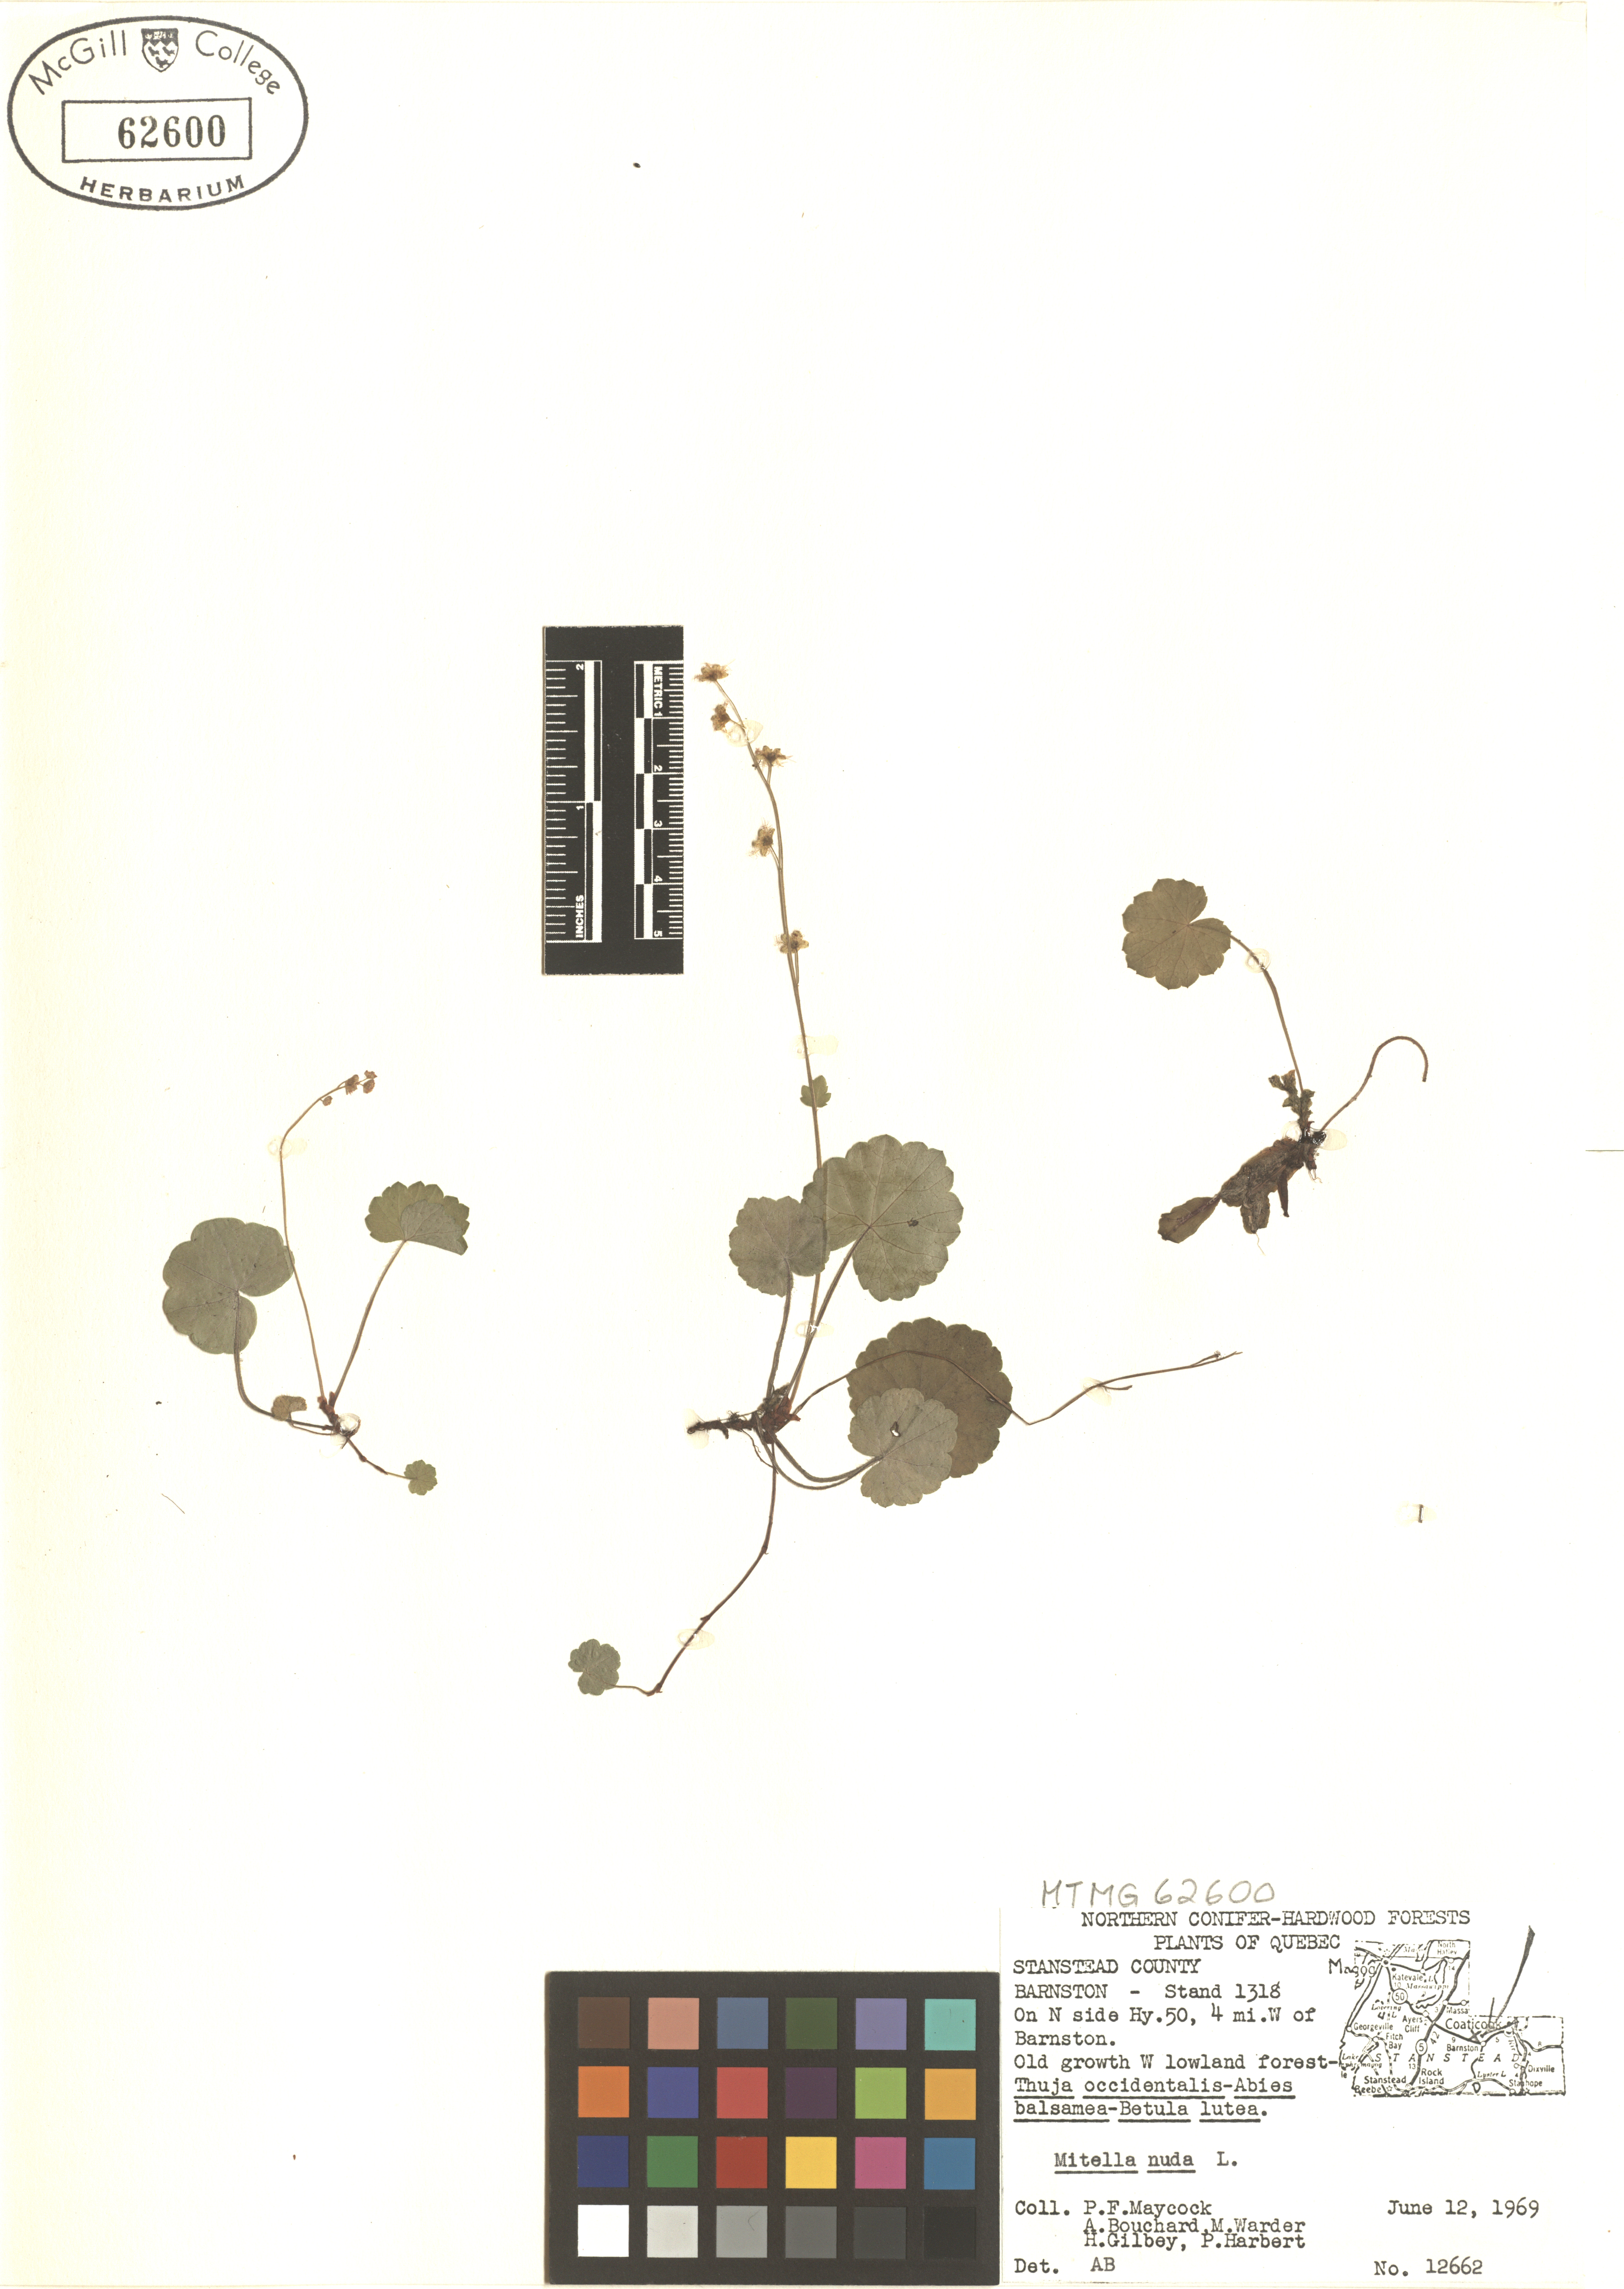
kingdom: Plantae
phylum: Tracheophyta
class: Magnoliopsida
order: Saxifragales
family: Saxifragaceae
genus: Mitella
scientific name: Mitella nuda
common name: Bare-stemmed bishop's-cap
